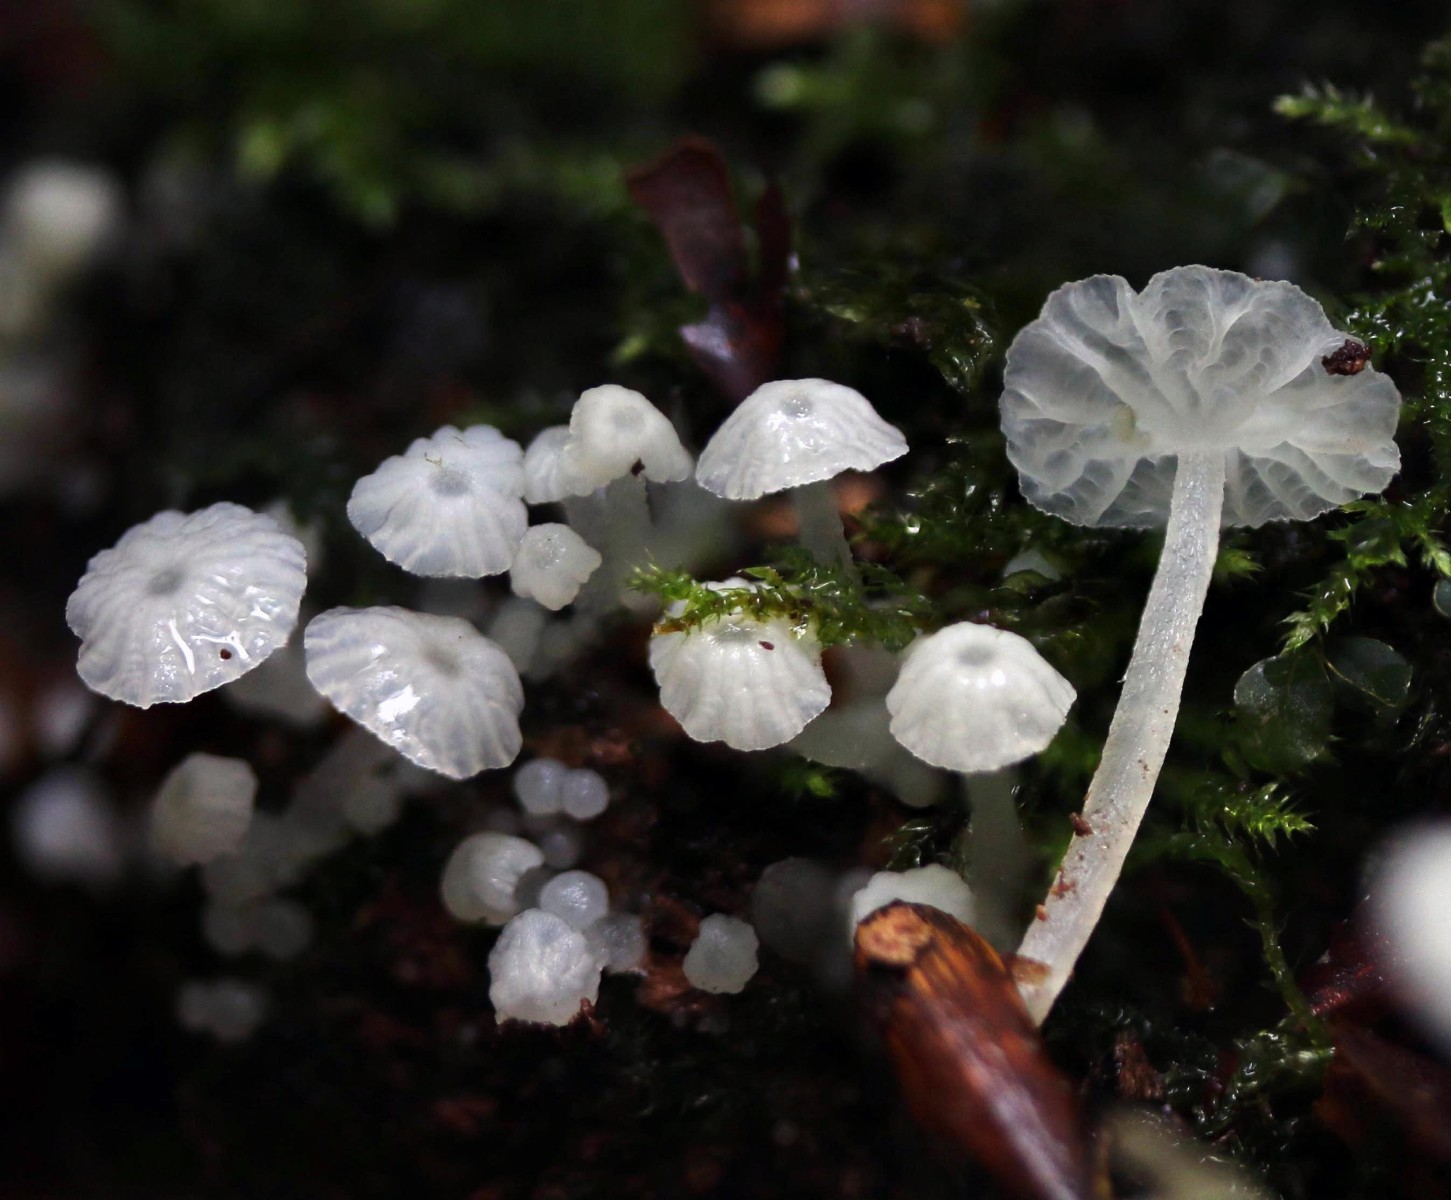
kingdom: Fungi
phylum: Basidiomycota
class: Agaricomycetes
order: Agaricales
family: Tricholomataceae
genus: Delicatula
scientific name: Delicatula integrella
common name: slørhuesvamp
